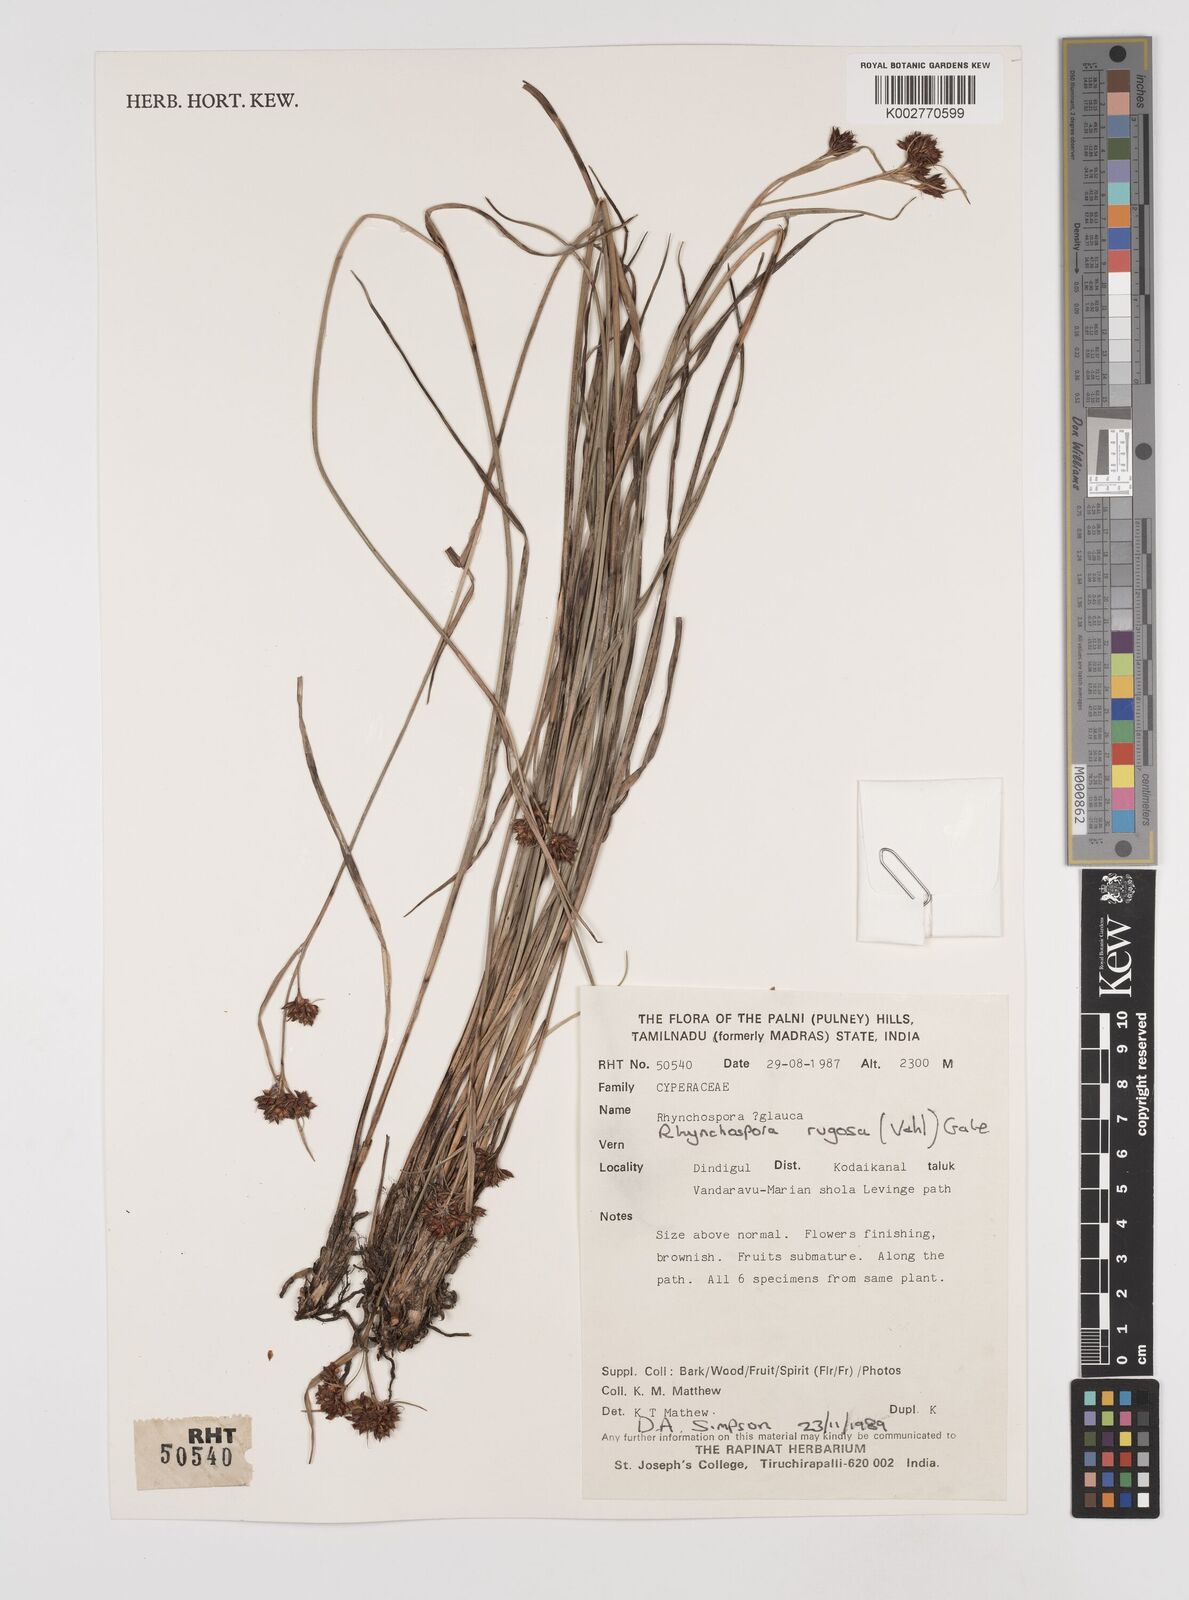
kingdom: Plantae
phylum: Tracheophyta
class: Liliopsida
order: Poales
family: Cyperaceae
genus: Rhynchospora
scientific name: Rhynchospora rugosa
